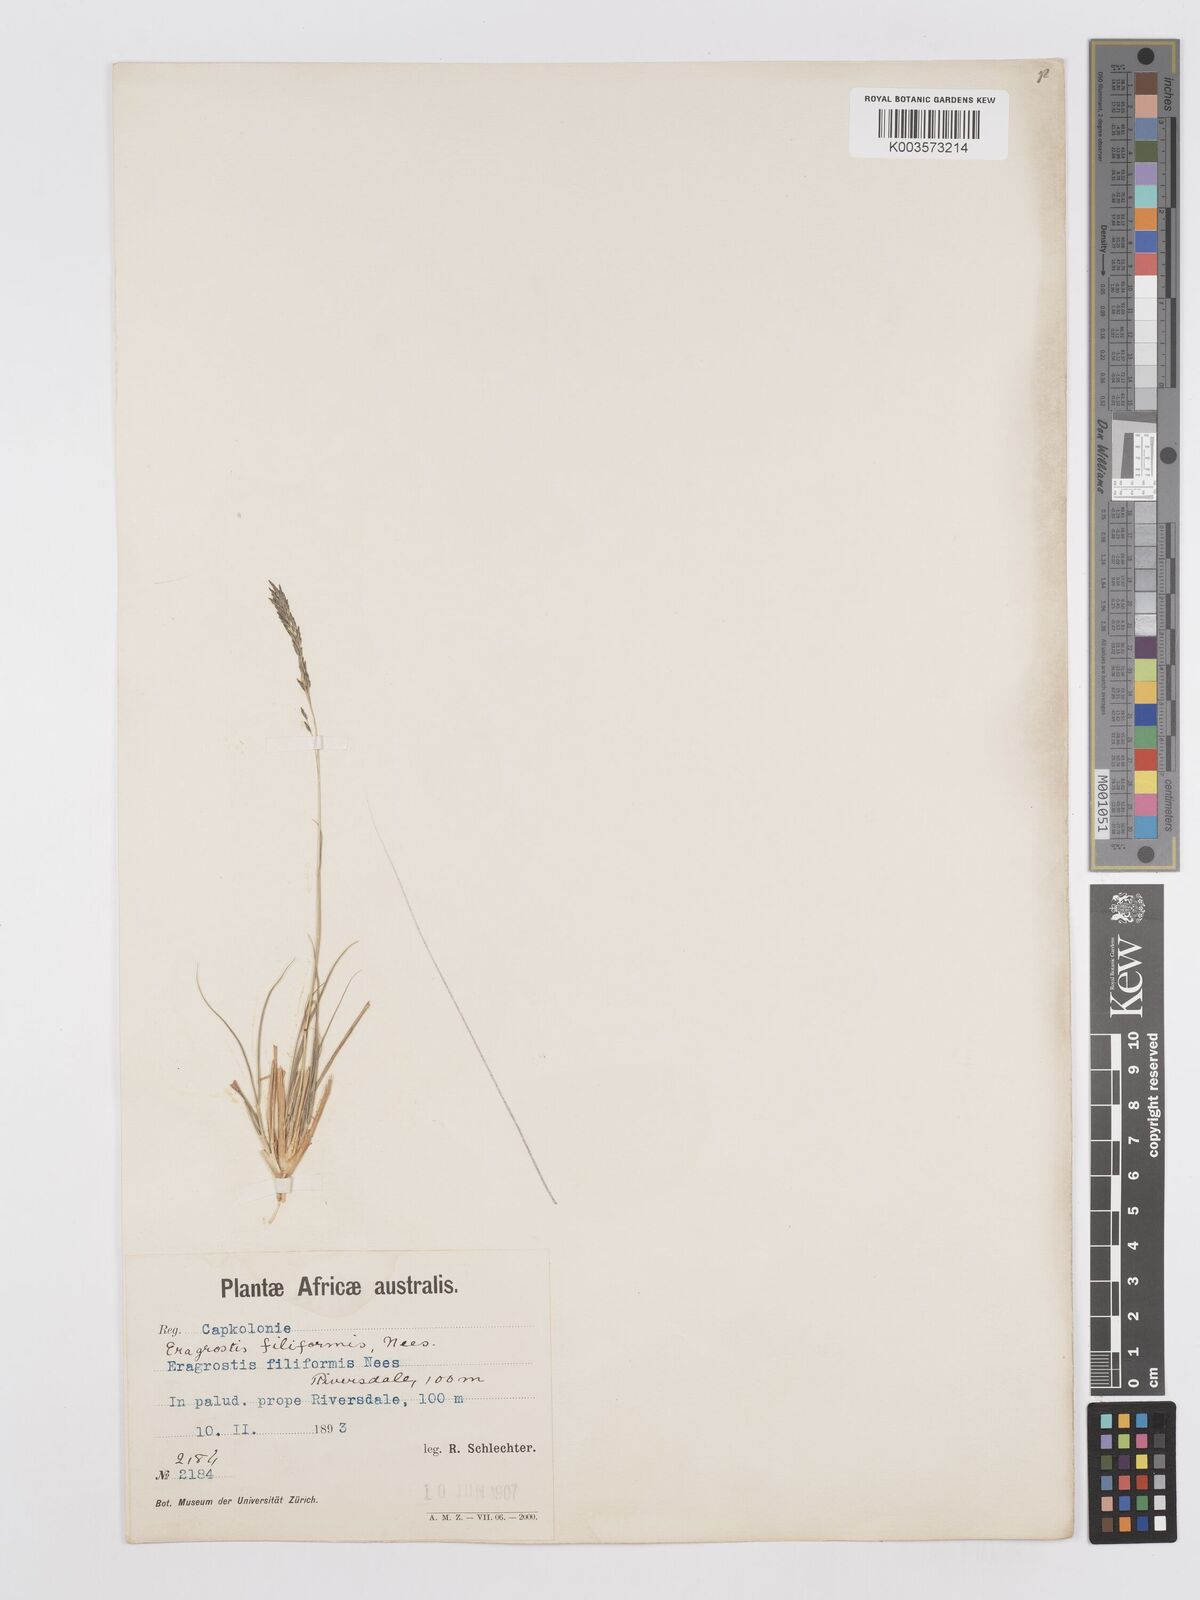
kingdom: Plantae
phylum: Tracheophyta
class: Liliopsida
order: Poales
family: Poaceae
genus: Eragrostis
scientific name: Eragrostis curvula
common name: African love-grass
